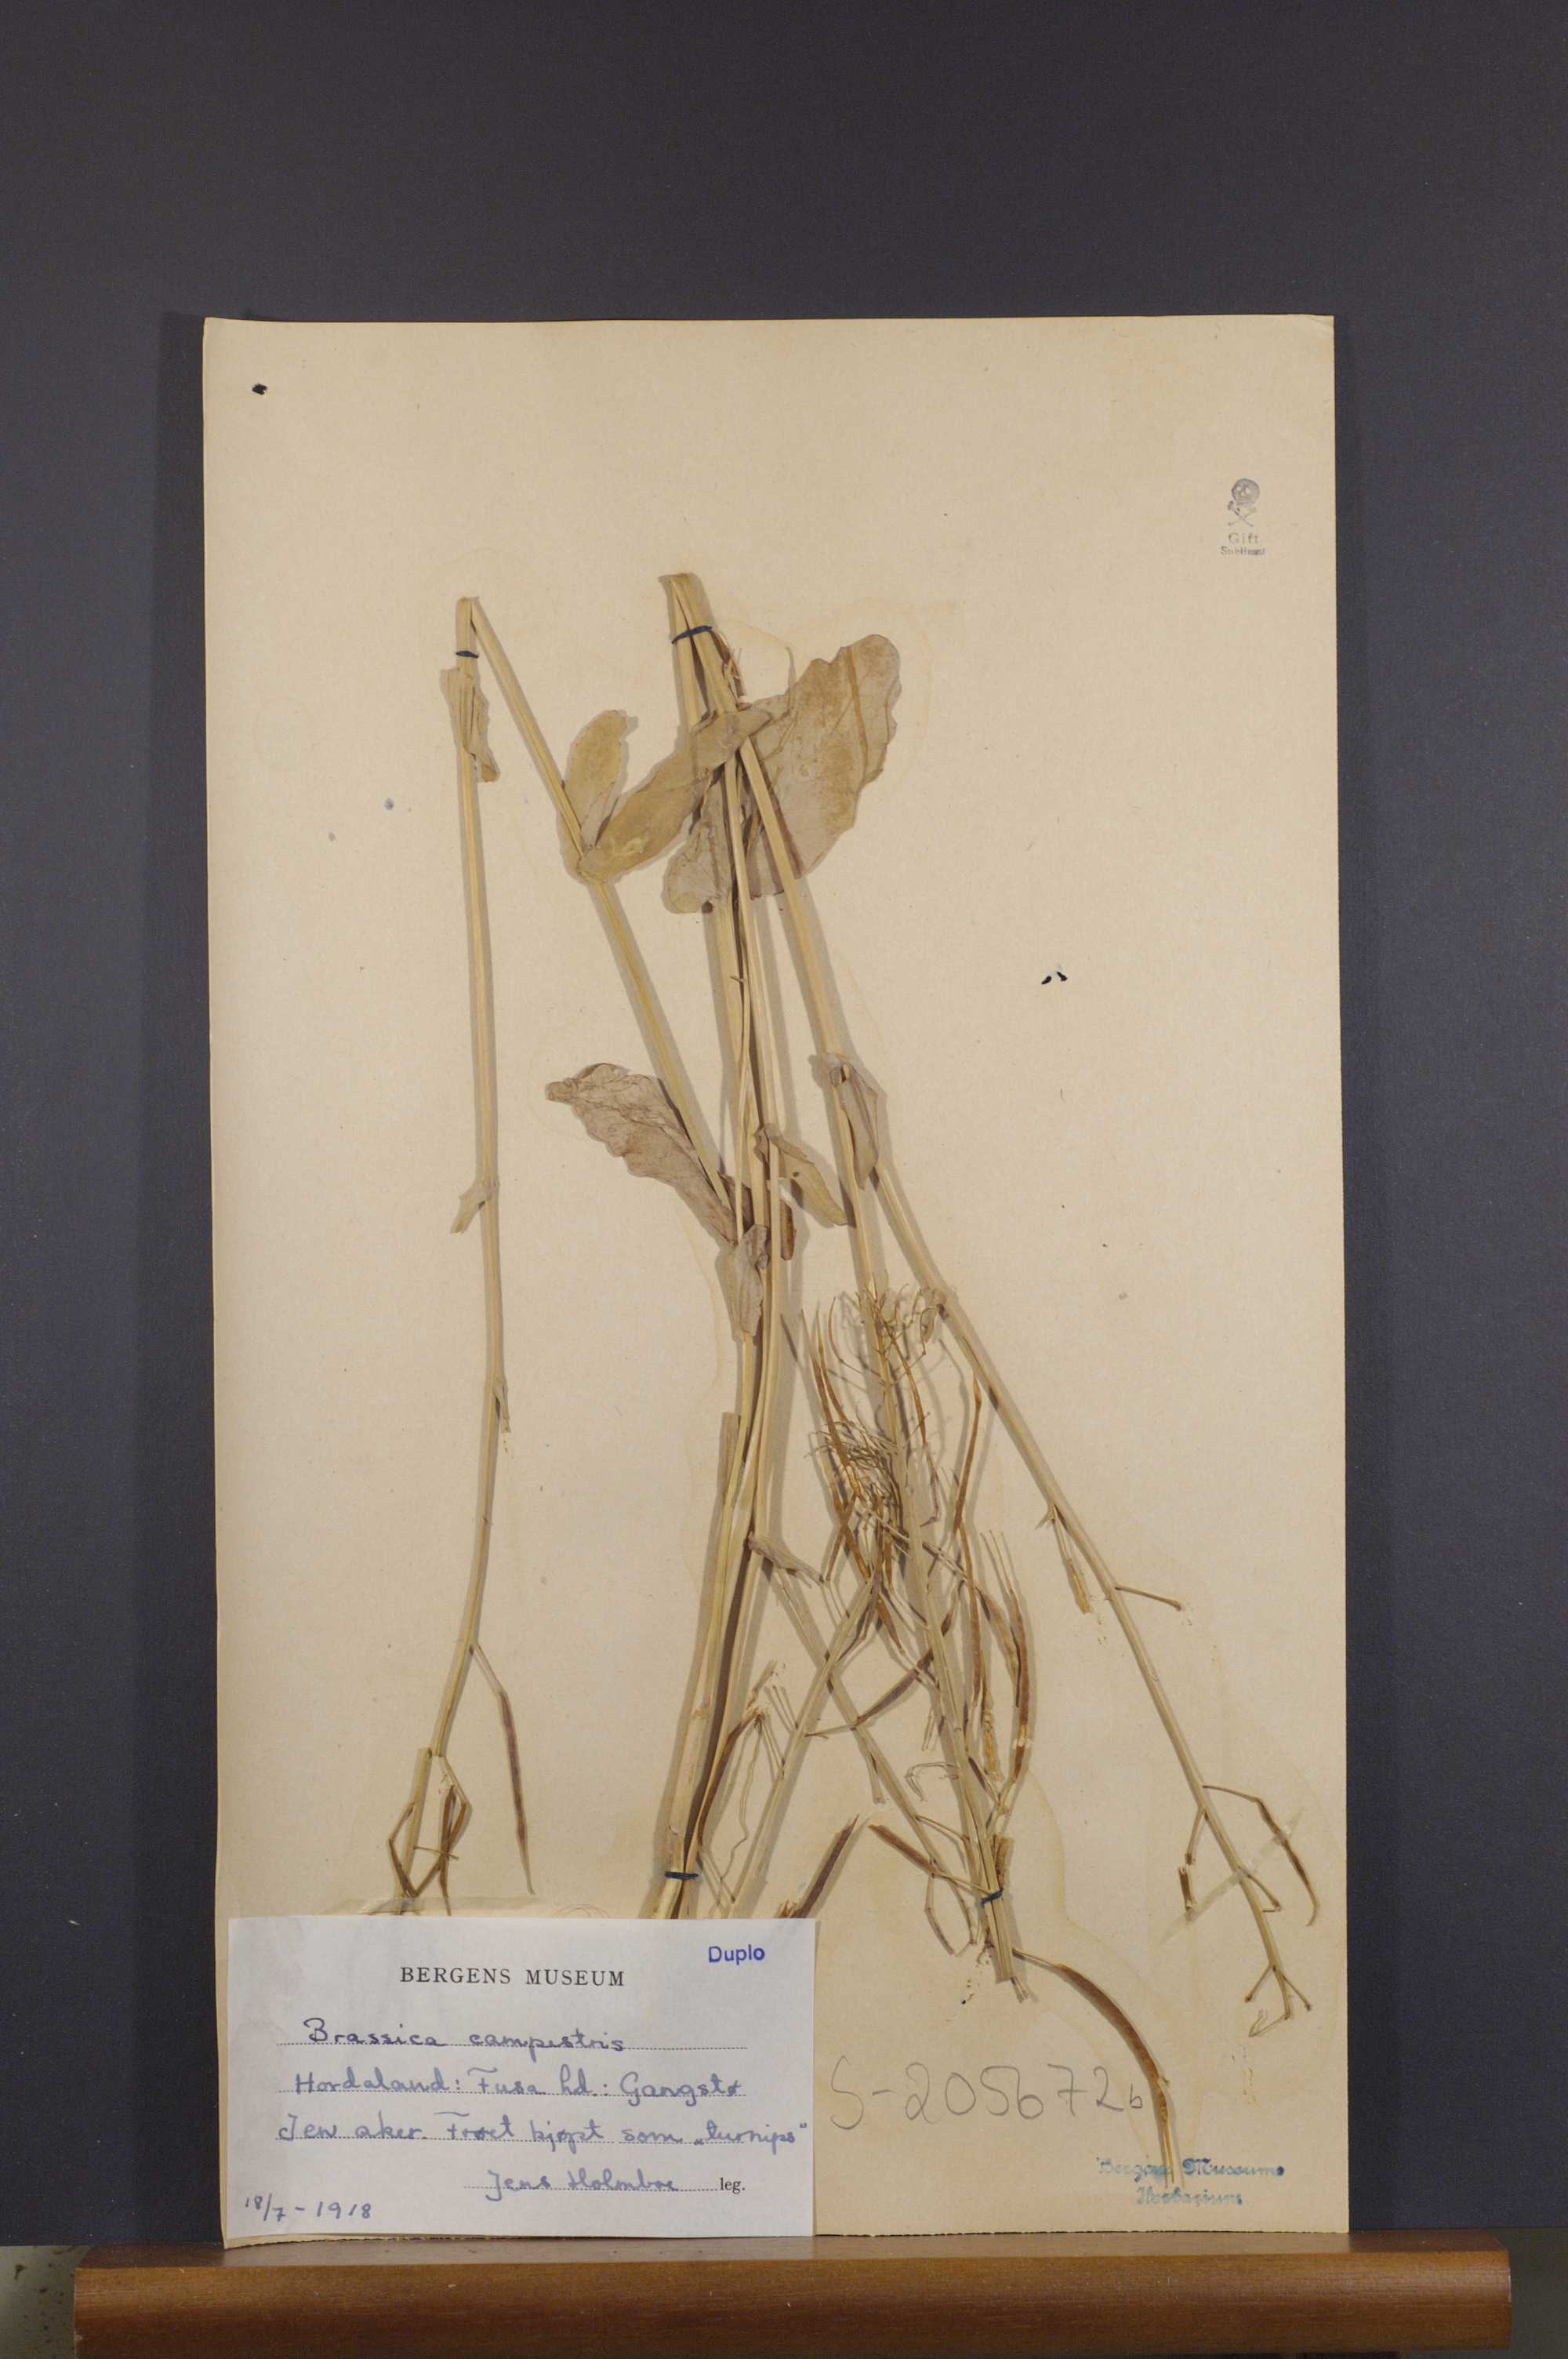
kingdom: Plantae
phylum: Tracheophyta
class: Magnoliopsida
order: Brassicales
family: Brassicaceae
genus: Brassica
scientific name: Brassica rapa
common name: Field mustard
